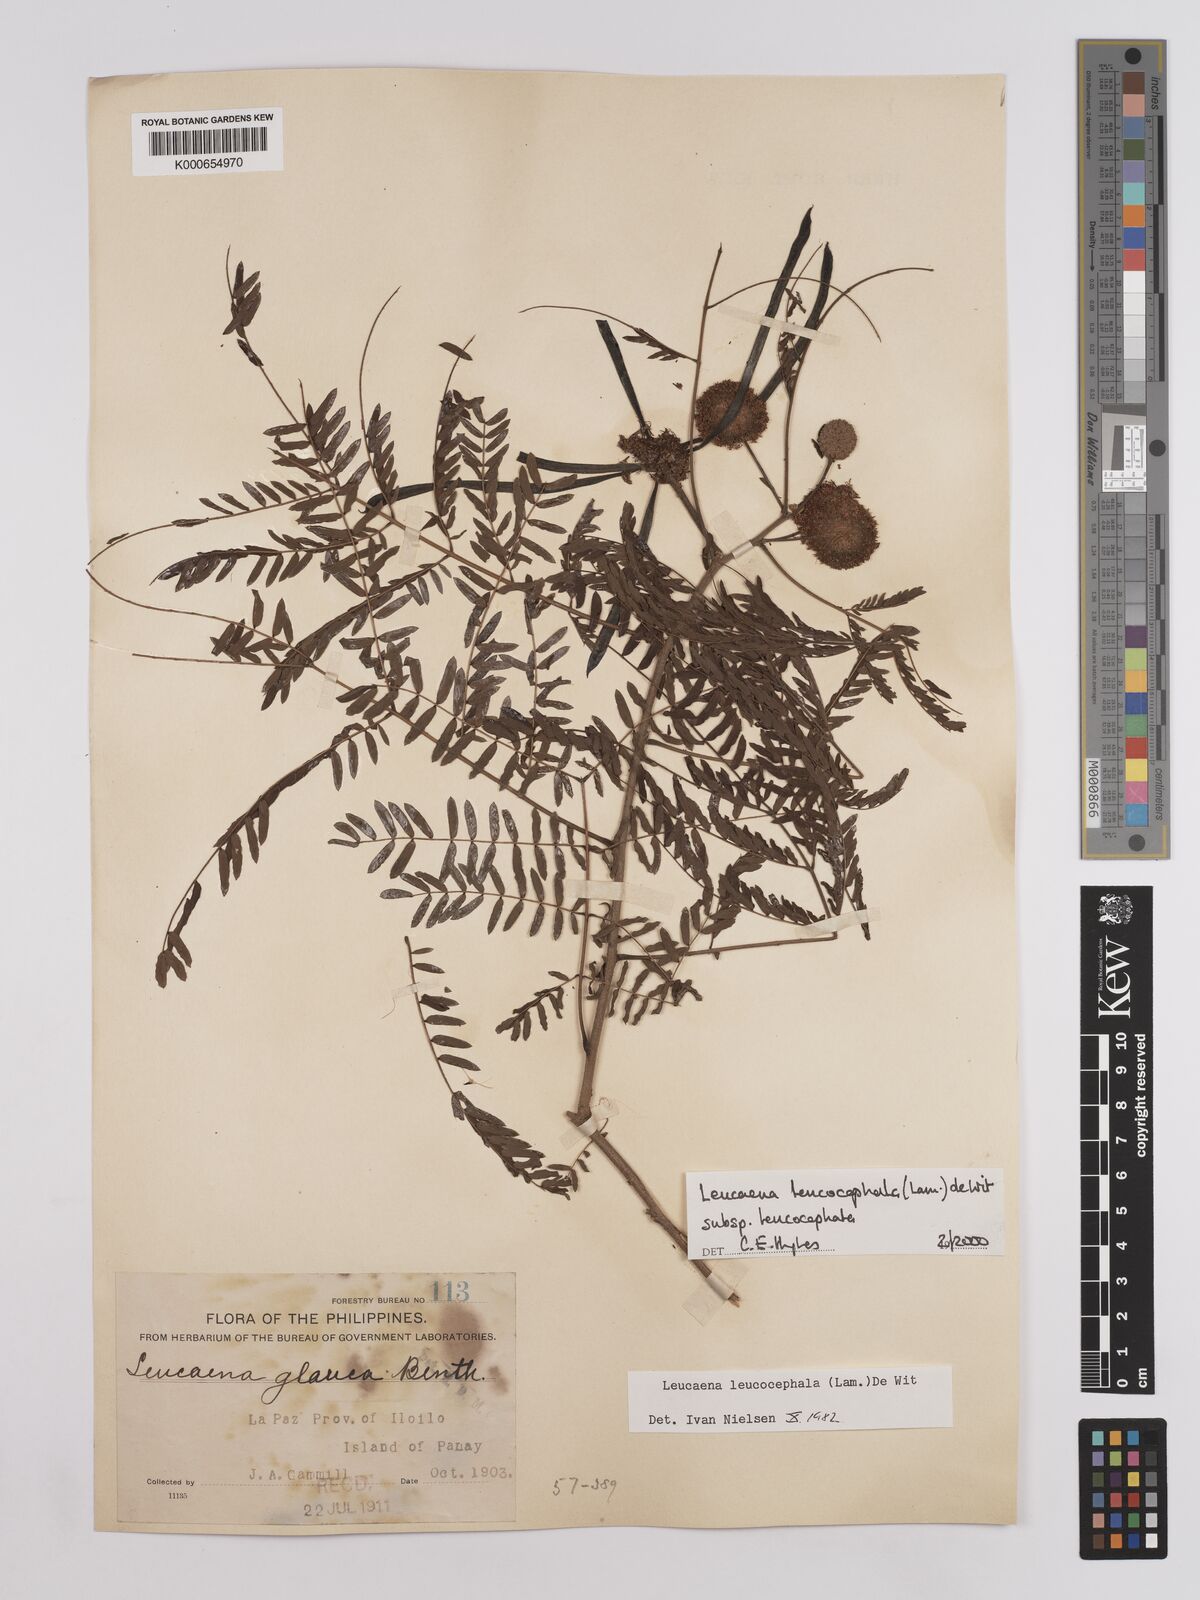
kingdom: Plantae
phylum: Tracheophyta
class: Magnoliopsida
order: Fabales
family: Fabaceae
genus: Leucaena
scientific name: Leucaena leucocephala
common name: White leadtree
